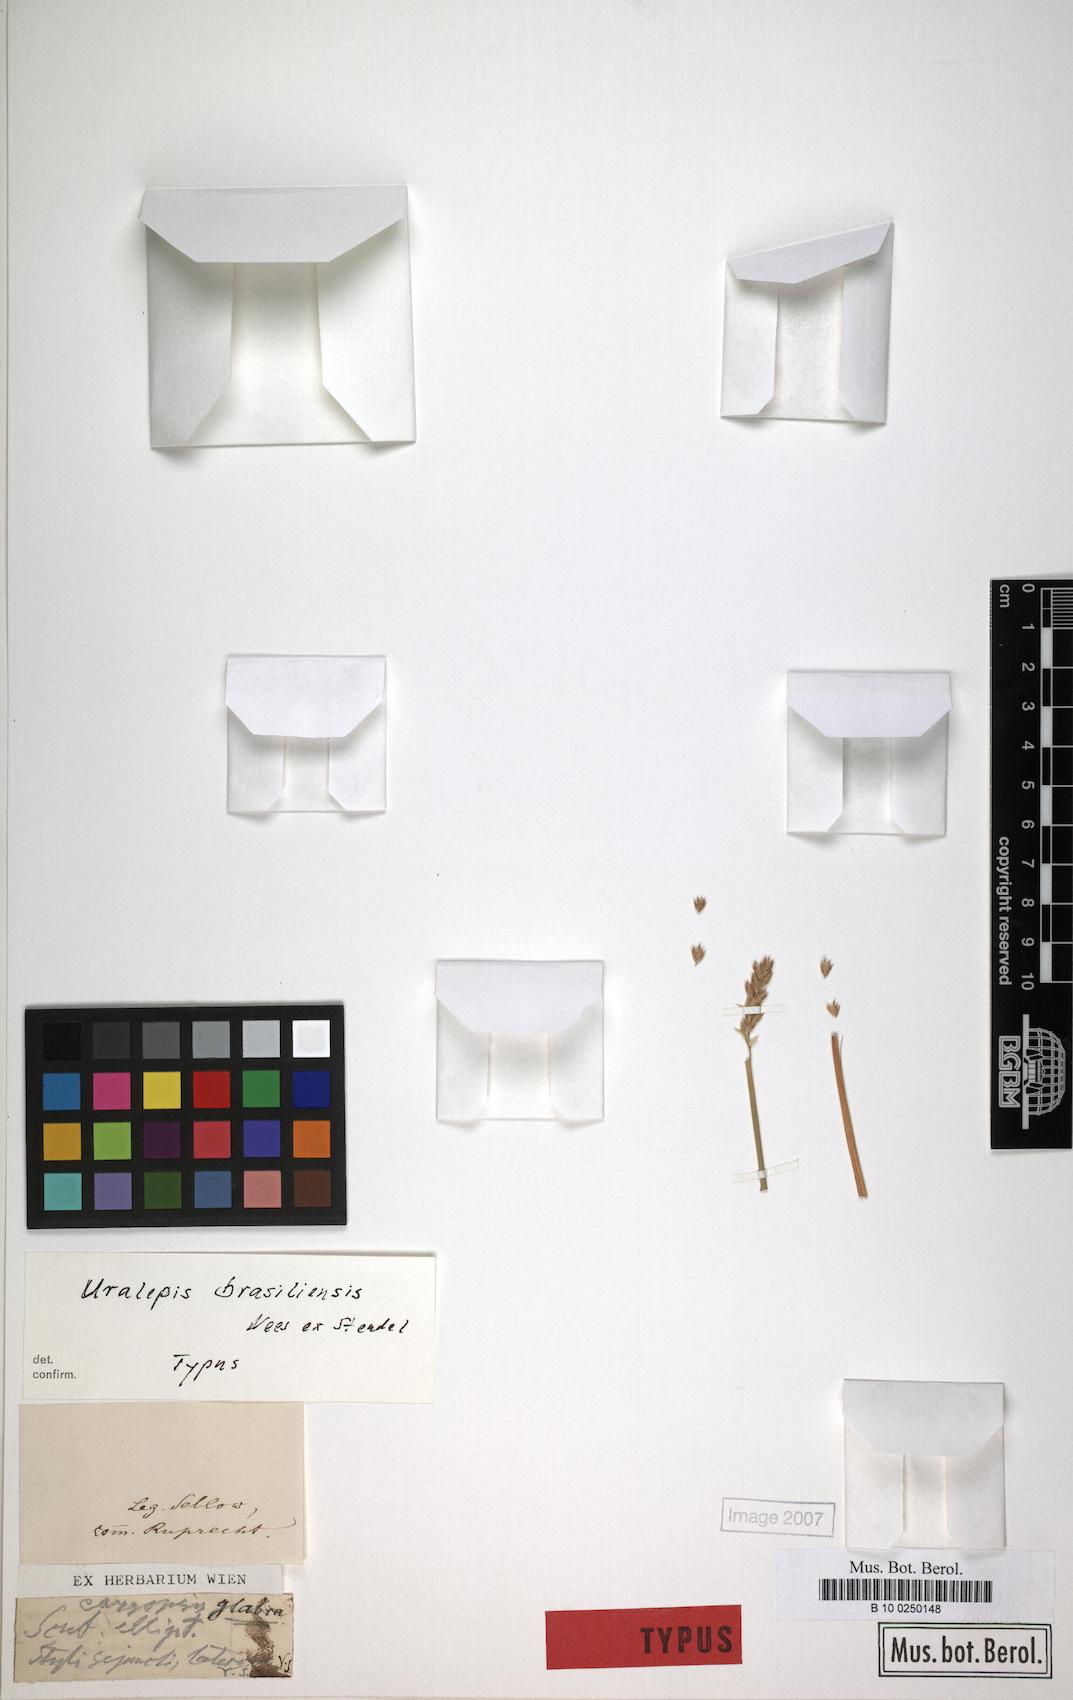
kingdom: Plantae
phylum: Tracheophyta
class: Liliopsida
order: Poales
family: Poaceae
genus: Tridens
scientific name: Tridens brasiliensis
